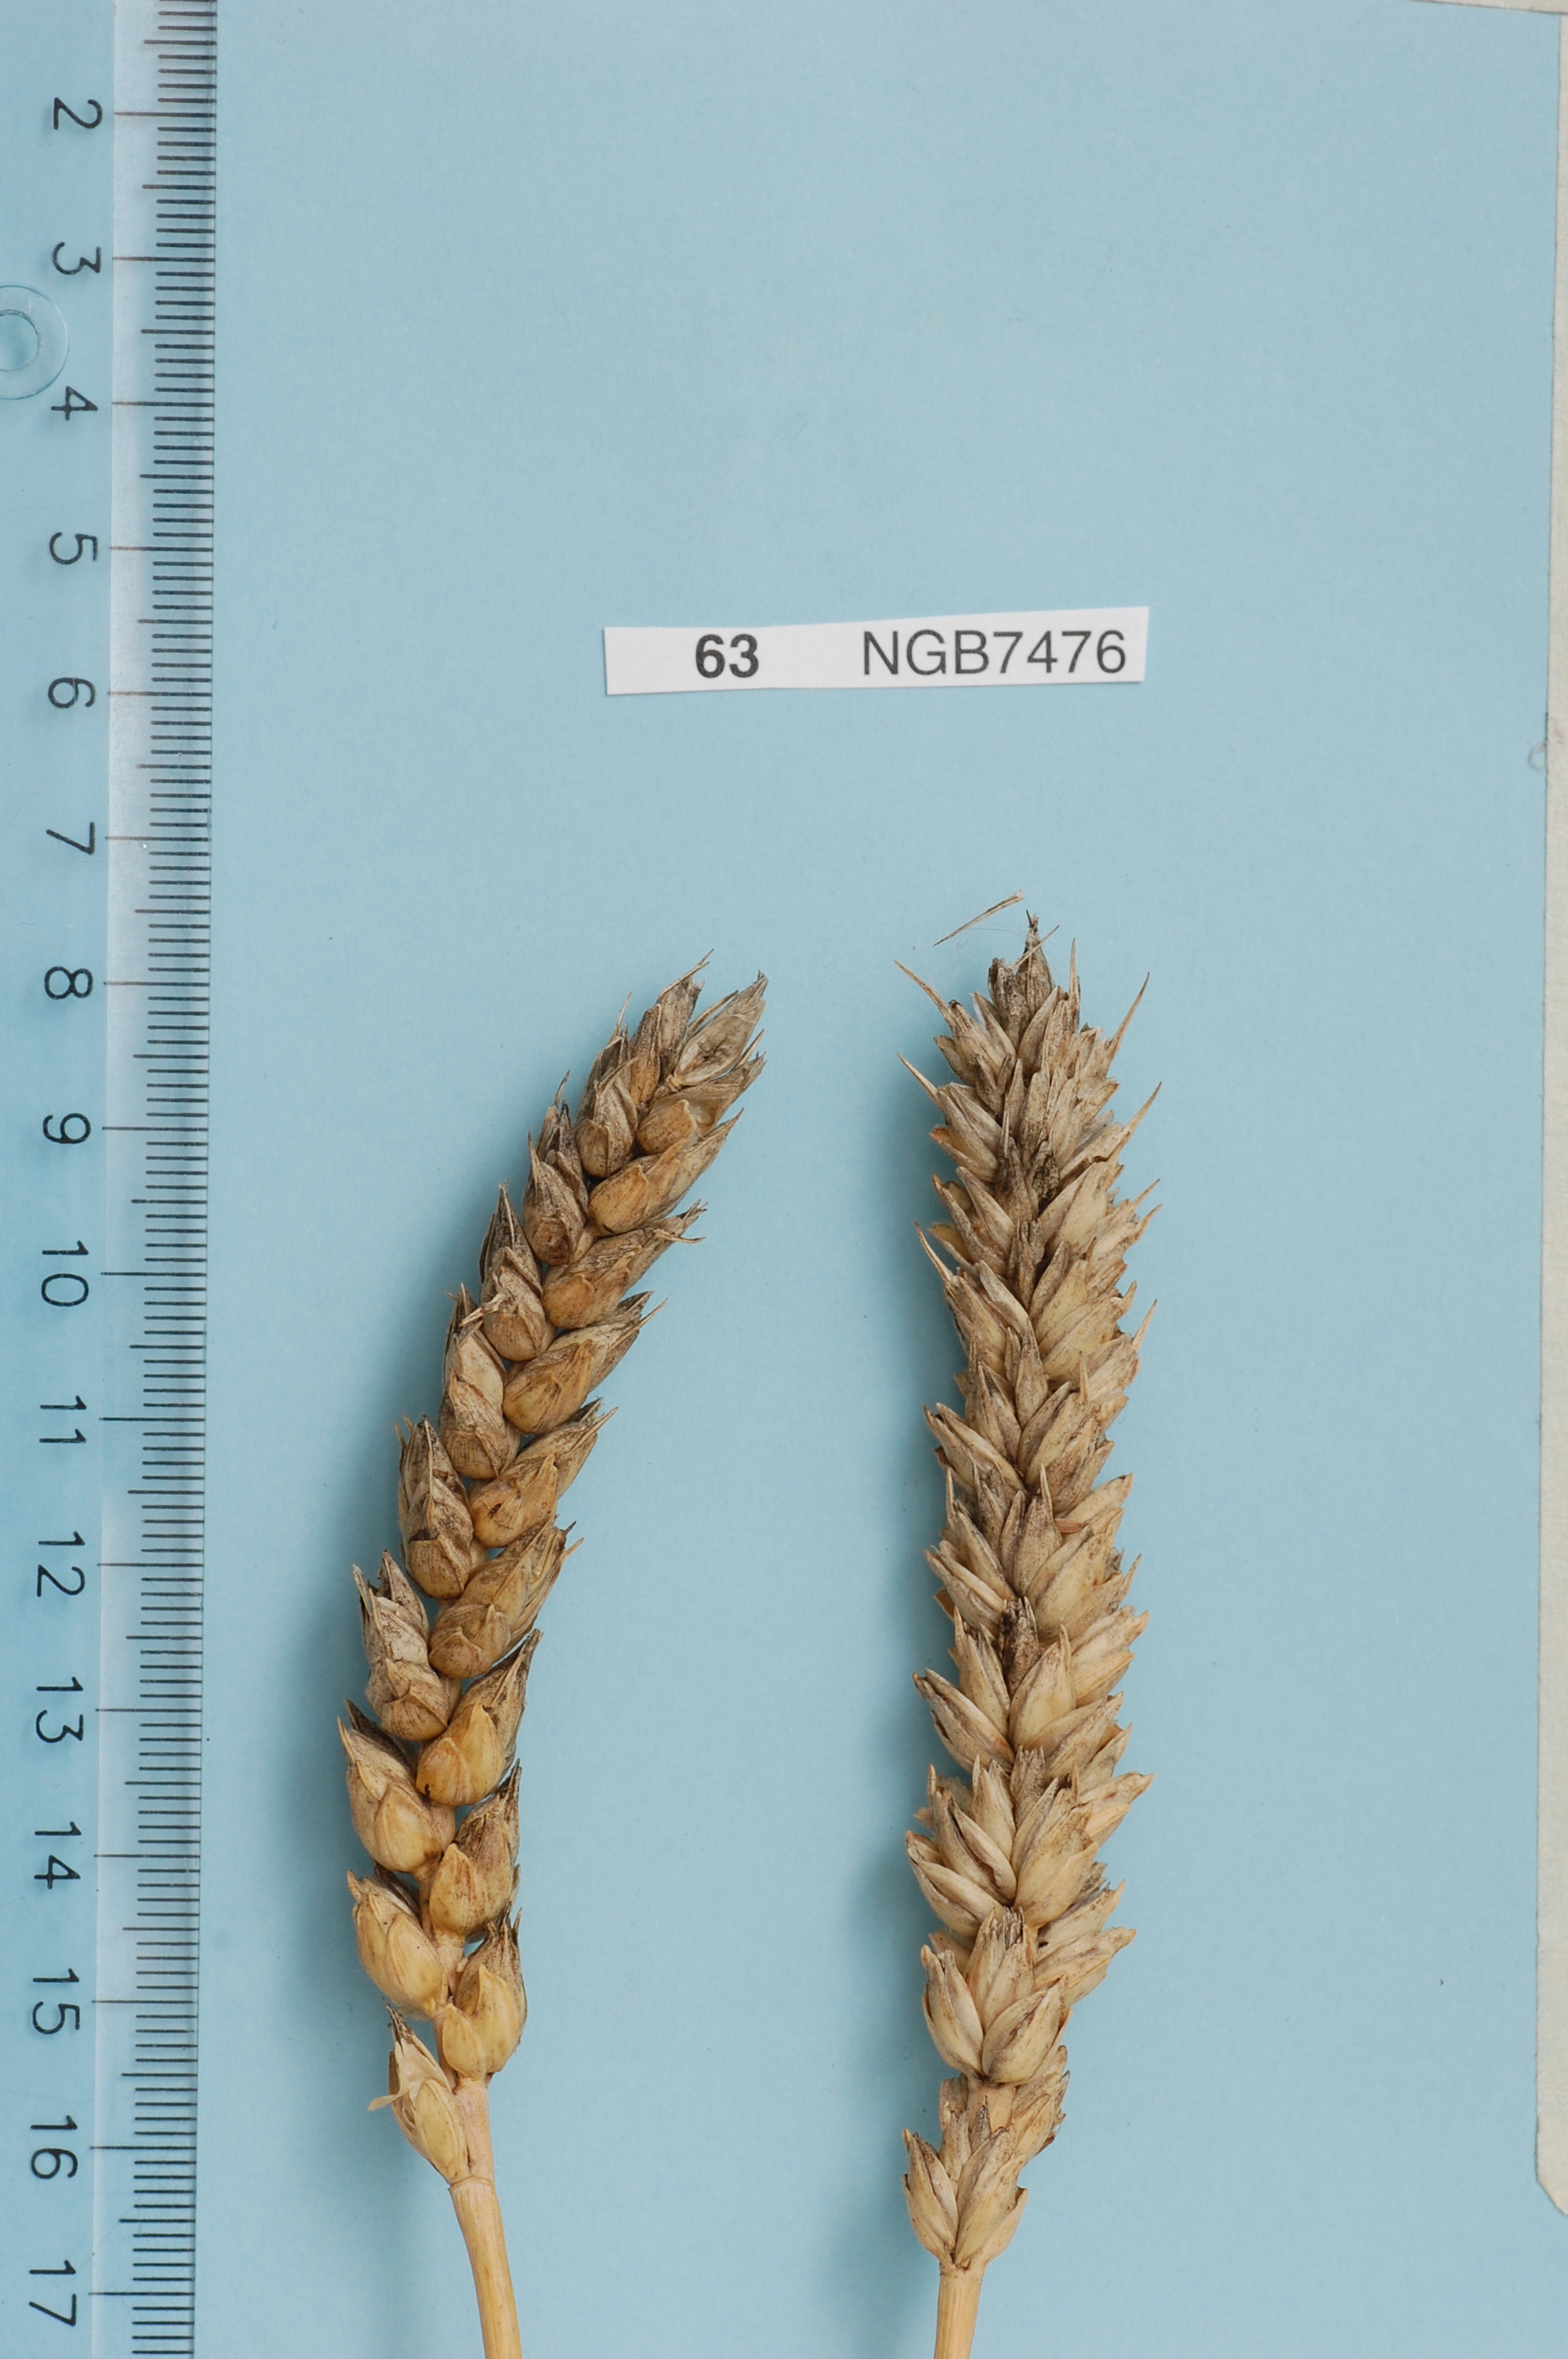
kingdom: Plantae
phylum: Tracheophyta
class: Liliopsida
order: Poales
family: Poaceae
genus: Triticum
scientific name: Triticum aestivum
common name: Common wheat
